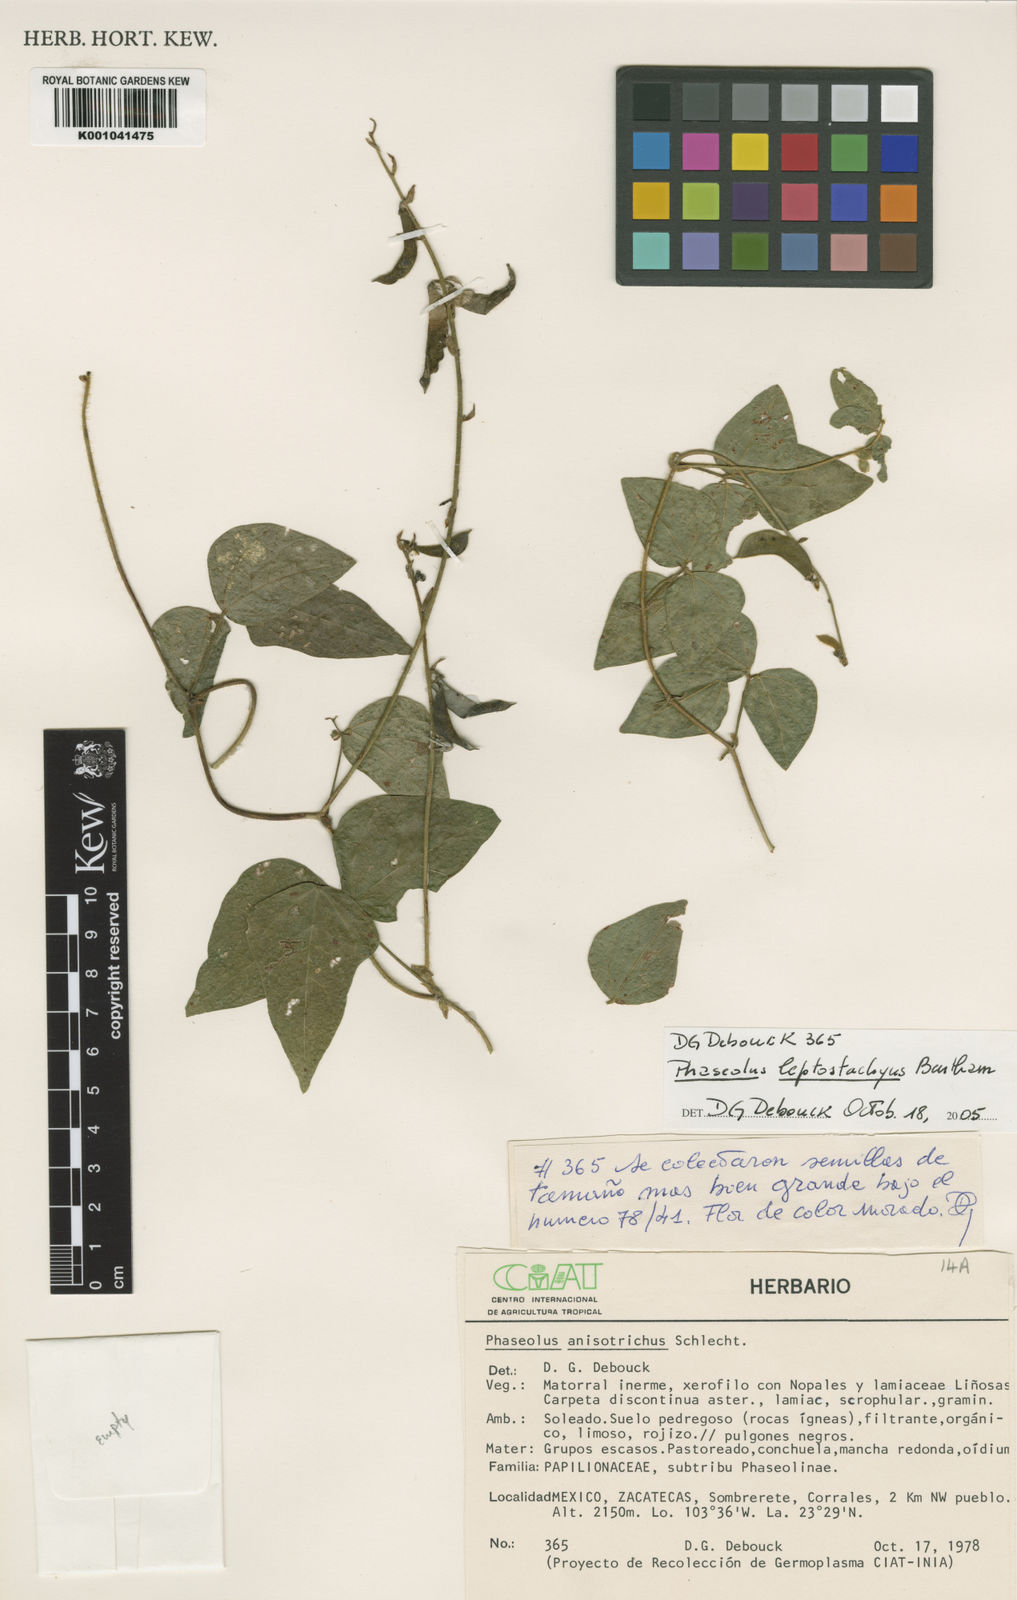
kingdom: Plantae
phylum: Tracheophyta
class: Magnoliopsida
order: Fabales
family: Fabaceae
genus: Phaseolus
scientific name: Phaseolus
